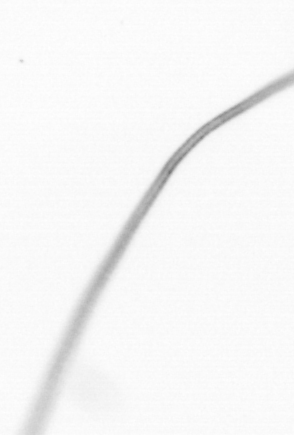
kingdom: Chromista
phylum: Ochrophyta
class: Bacillariophyceae
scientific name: Bacillariophyceae
